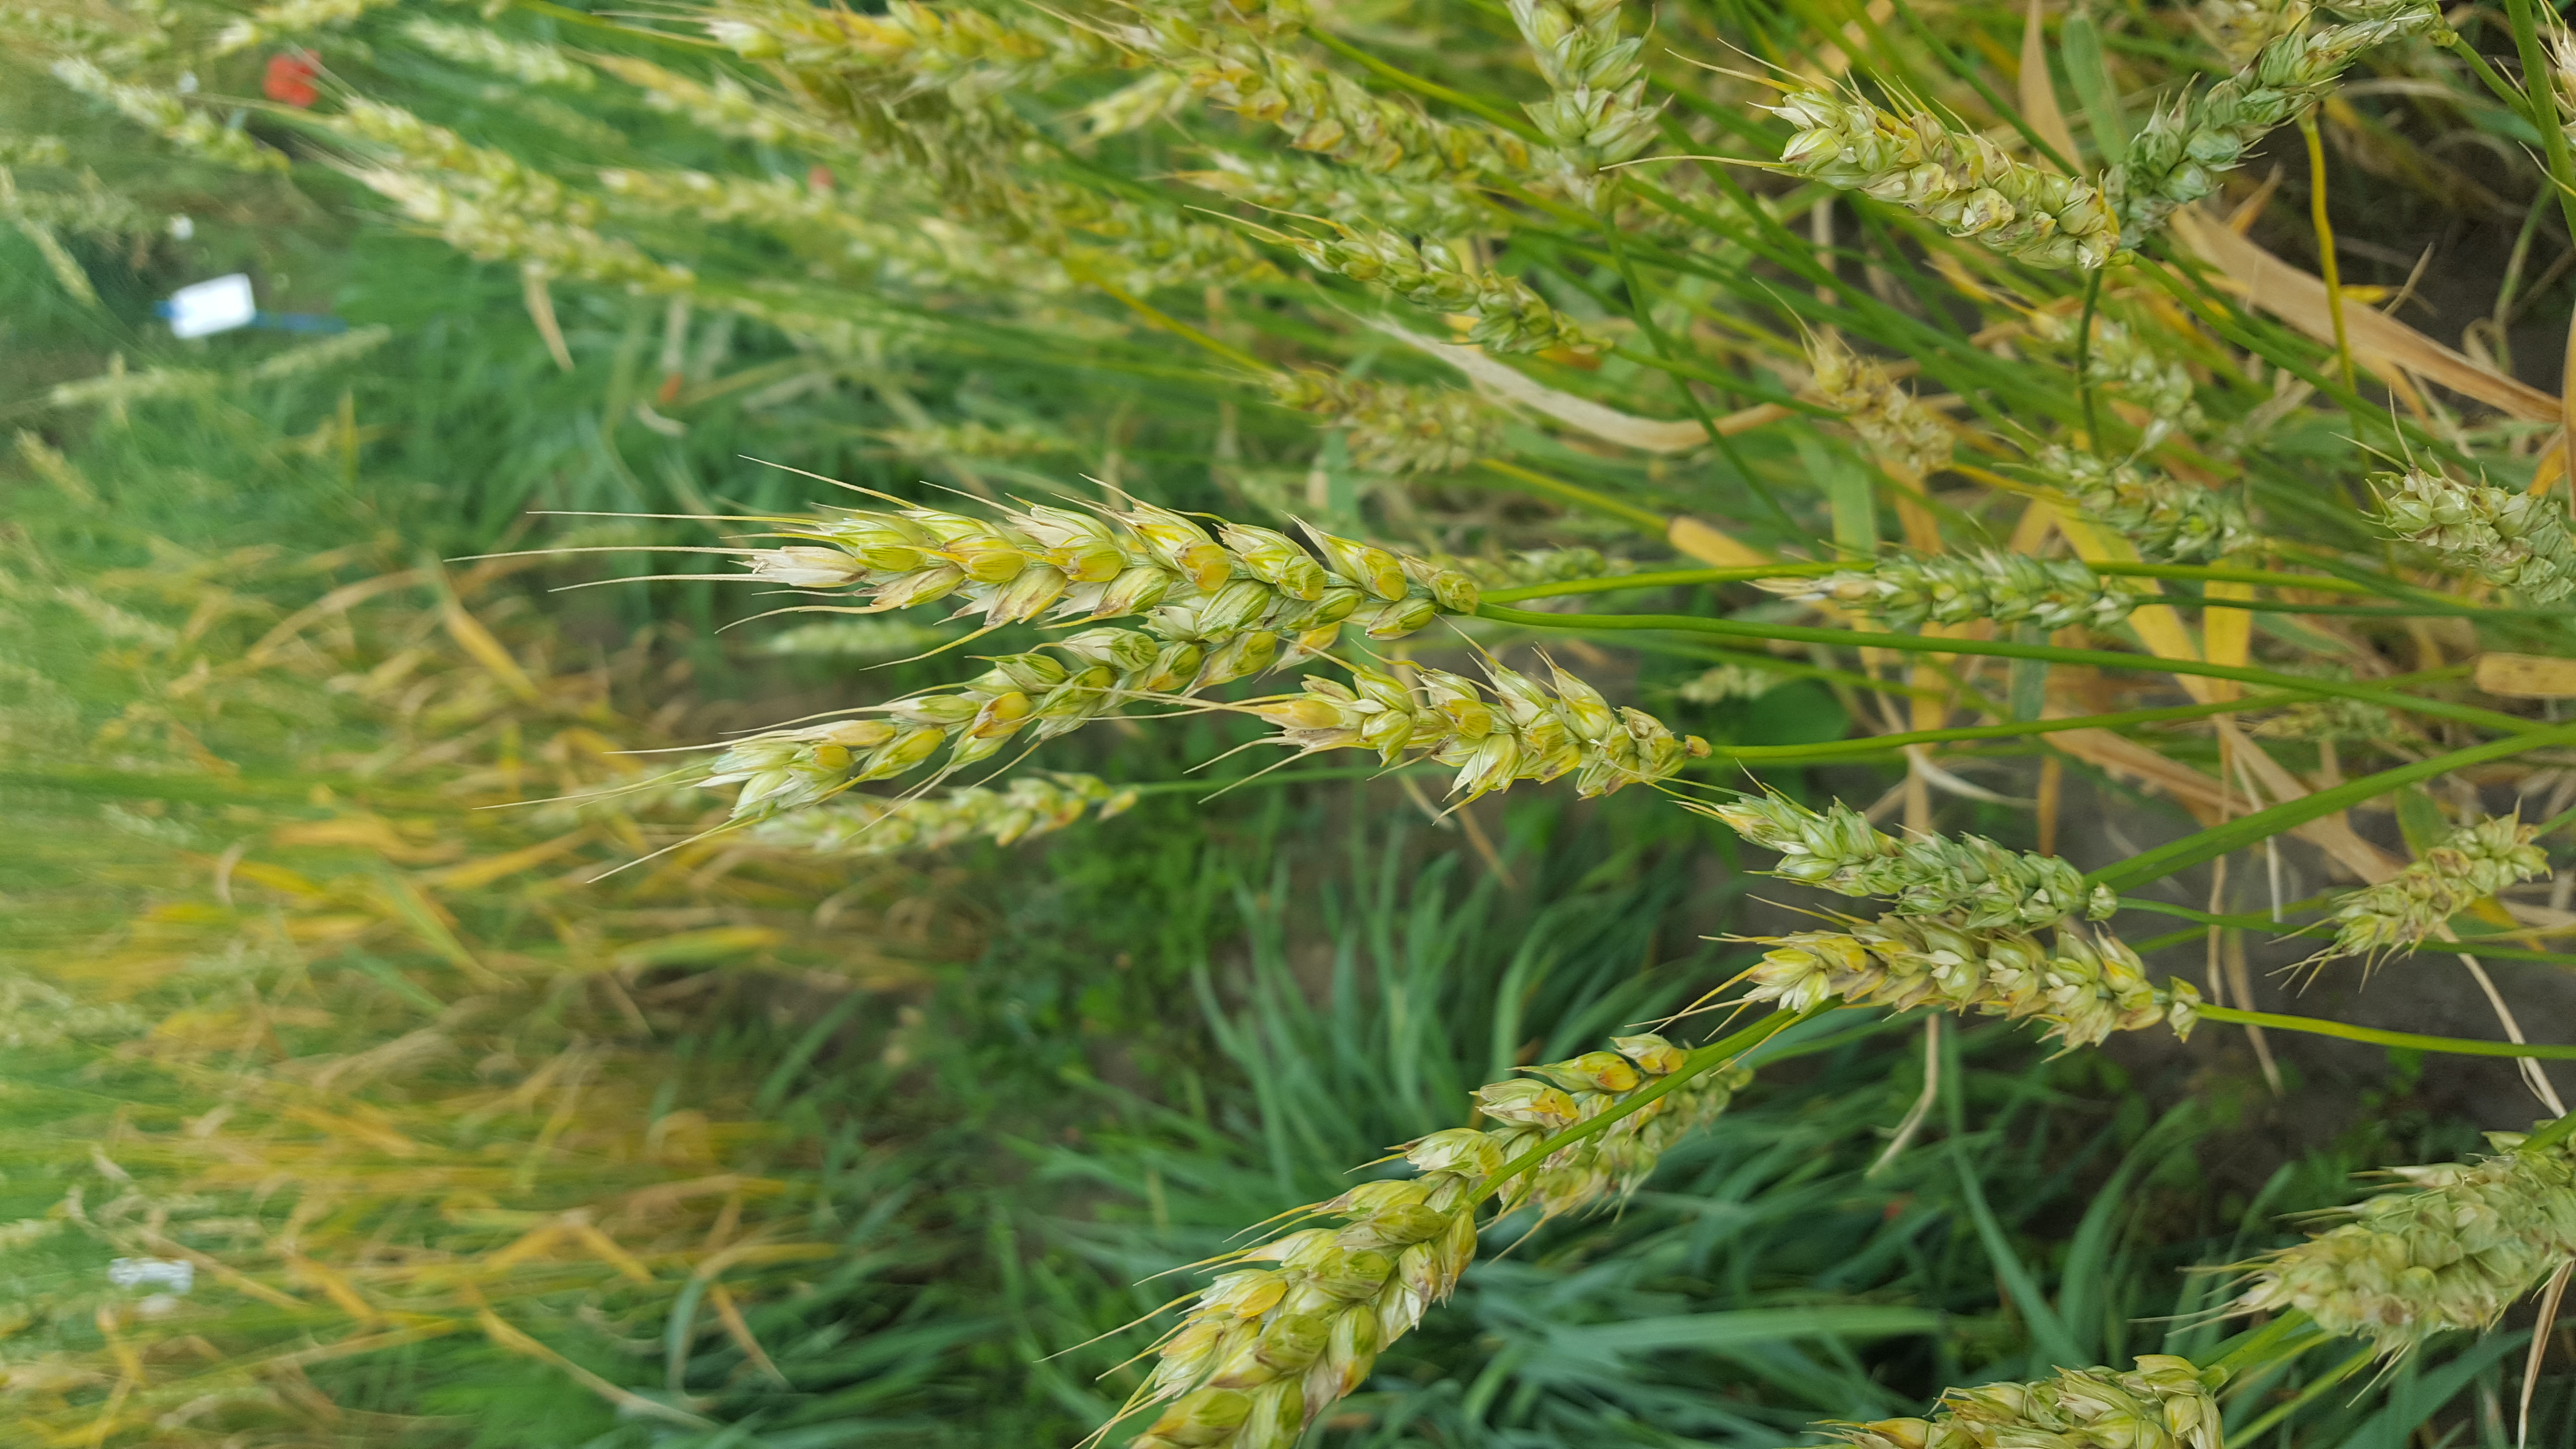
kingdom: Plantae
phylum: Tracheophyta
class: Liliopsida
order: Poales
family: Poaceae
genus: Triticum
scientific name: Triticum aestivum
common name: Common wheat
